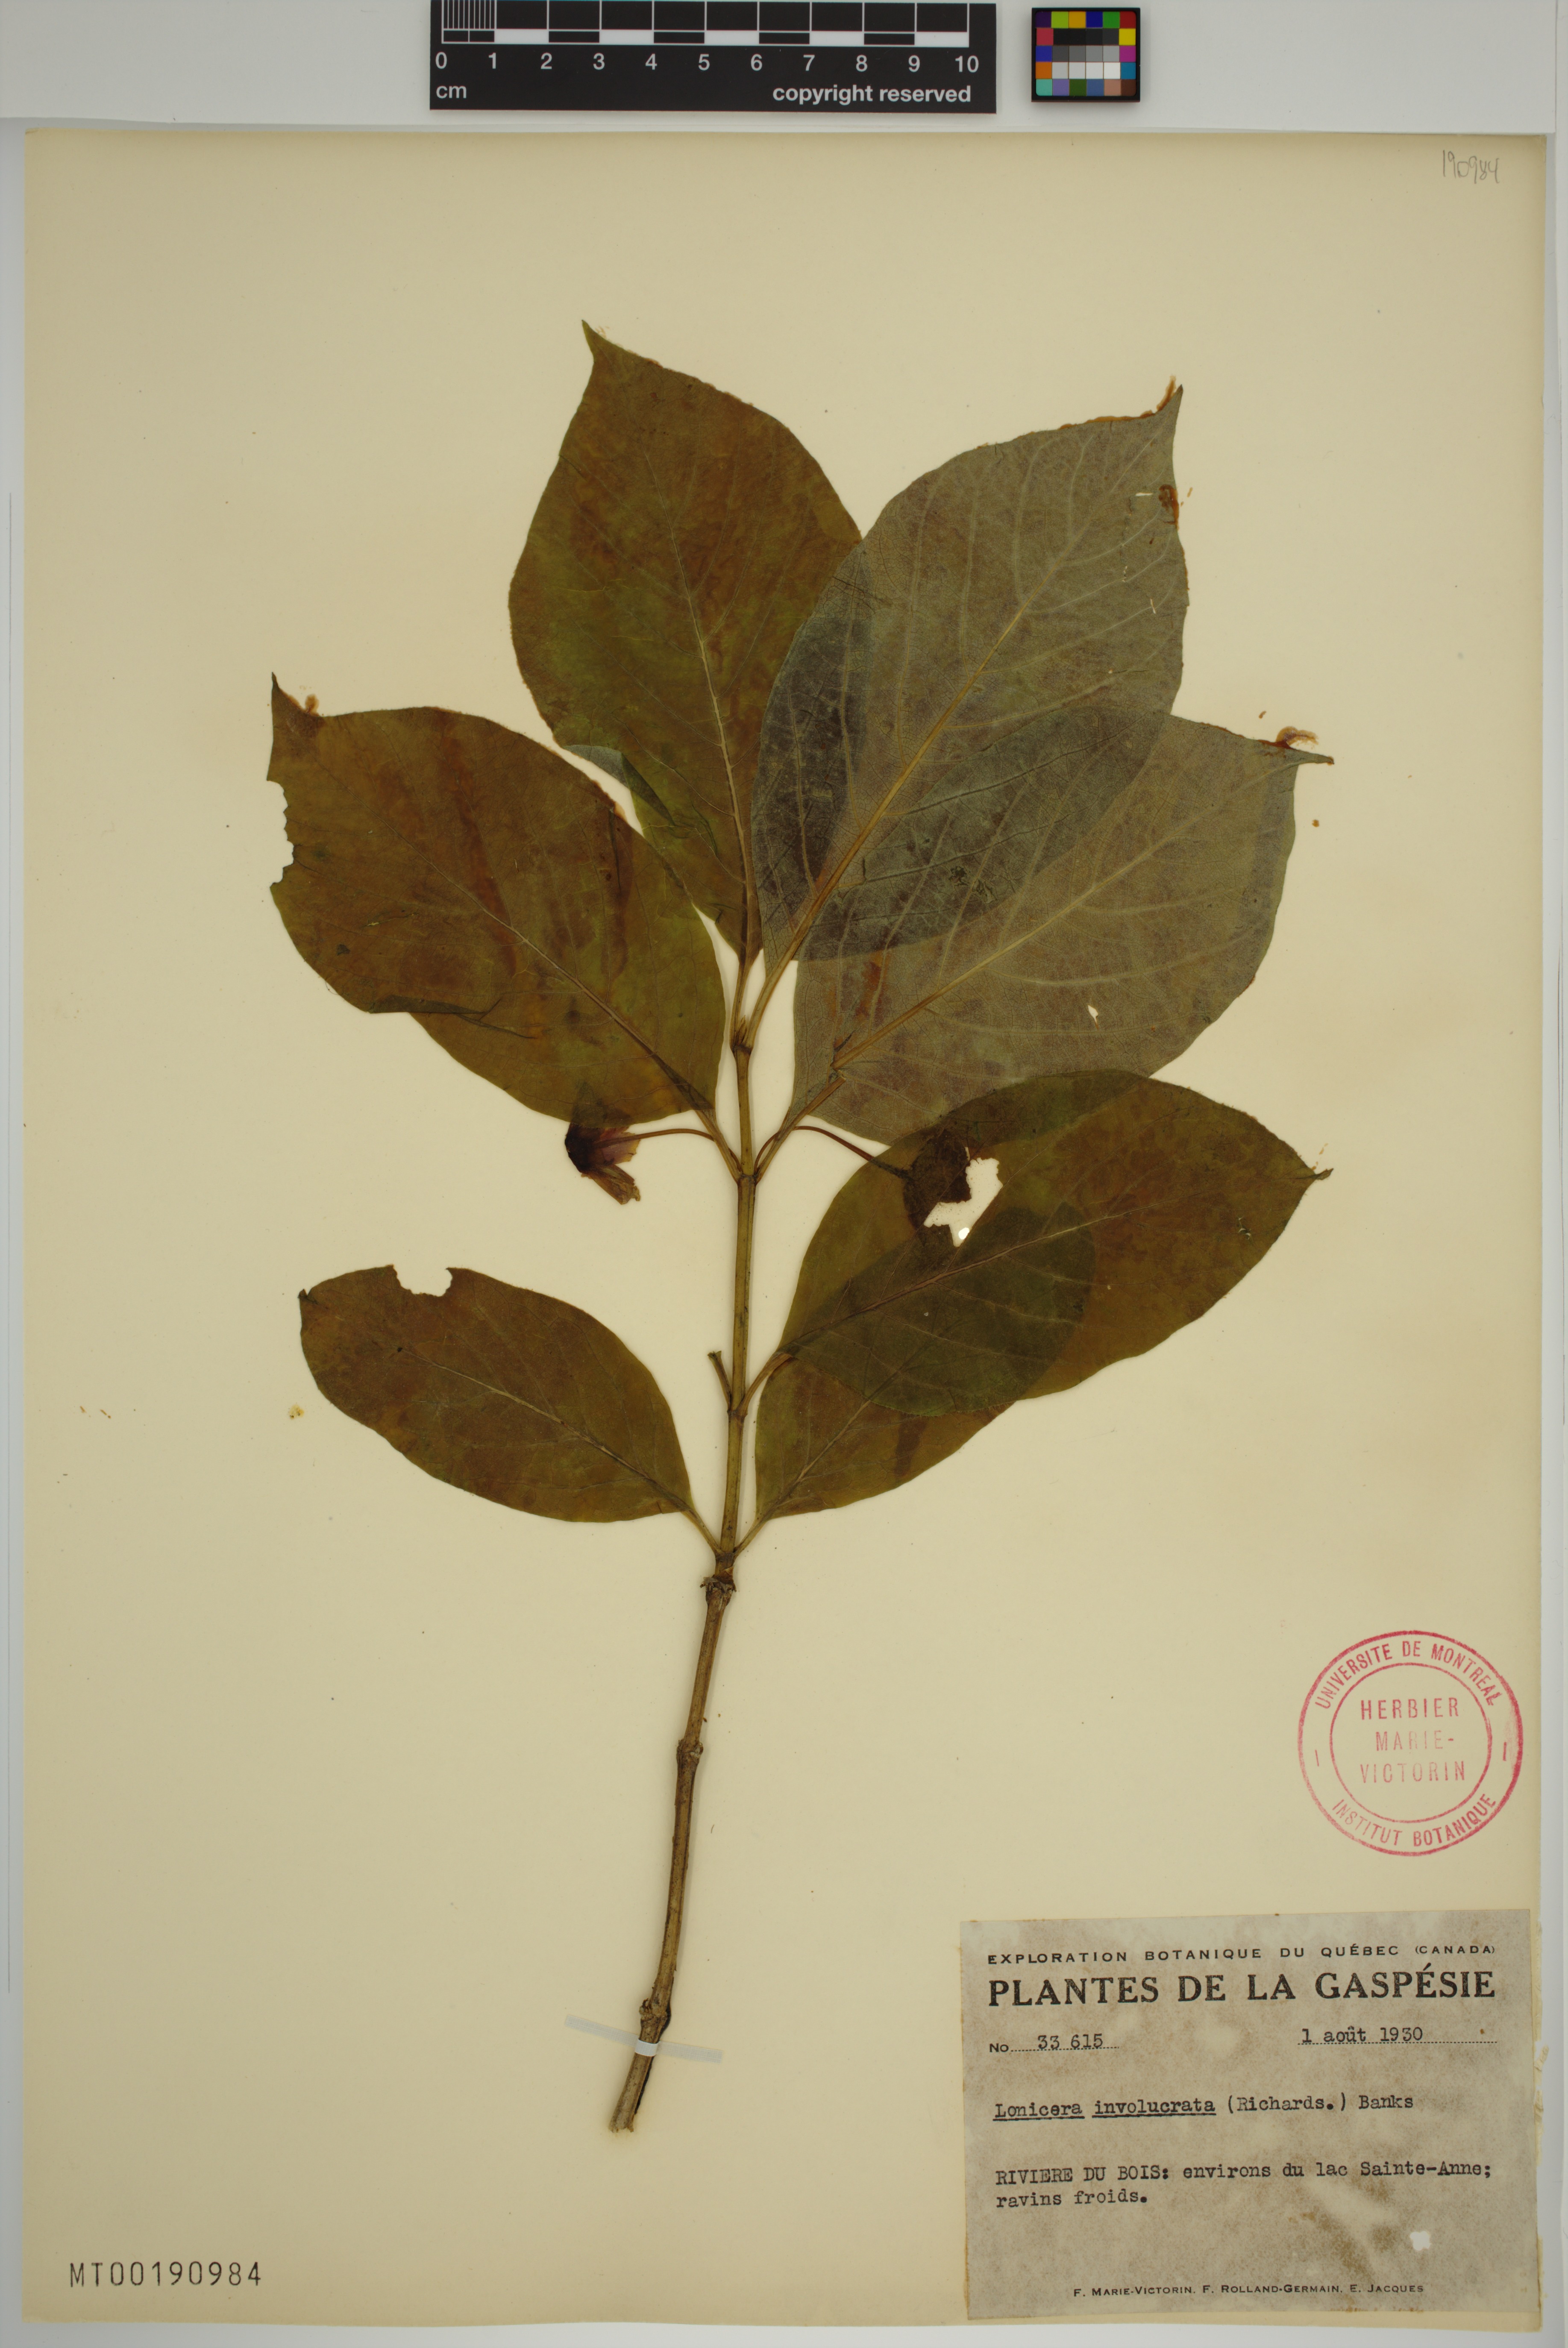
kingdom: Plantae
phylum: Tracheophyta
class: Magnoliopsida
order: Dipsacales
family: Caprifoliaceae
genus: Lonicera
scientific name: Lonicera involucrata
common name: Californian honeysuckle
